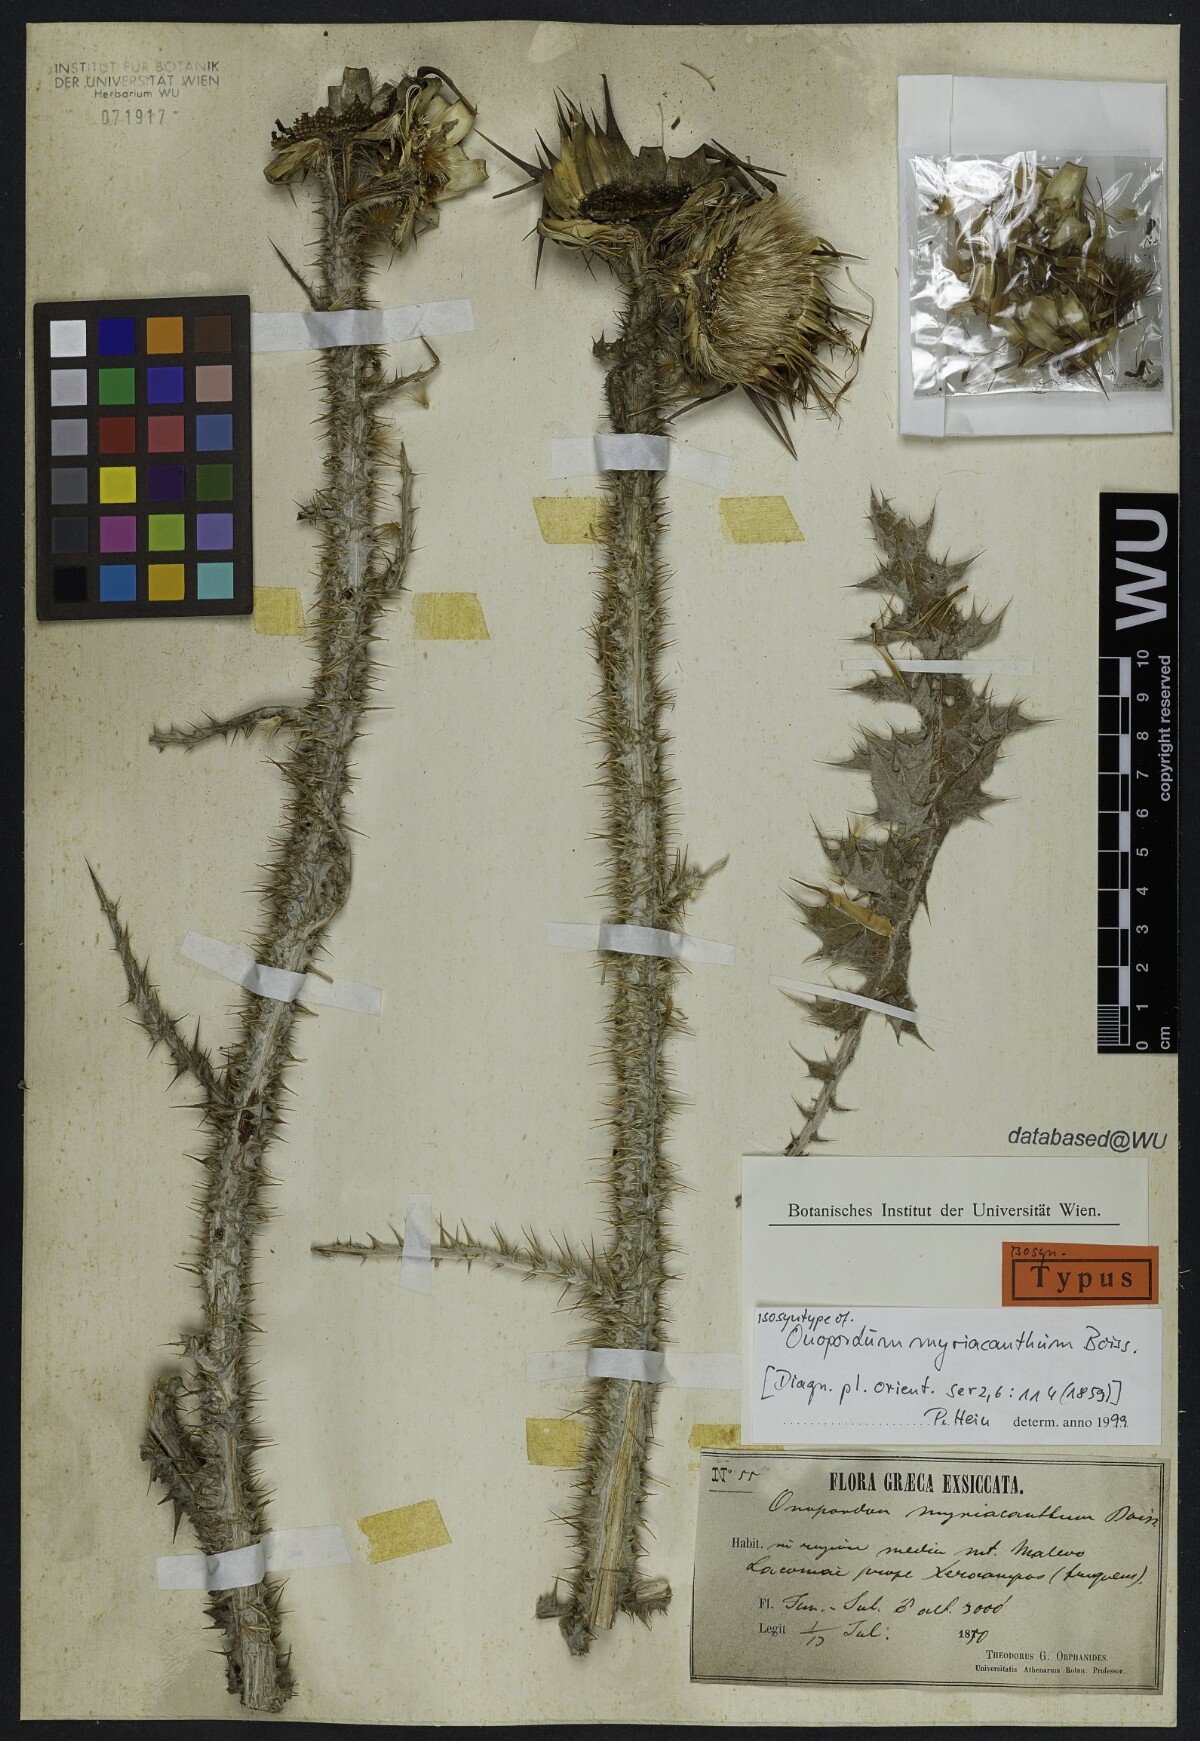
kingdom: Plantae
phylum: Tracheophyta
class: Magnoliopsida
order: Asterales
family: Asteraceae
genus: Onopordum
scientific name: Onopordum myriacanthum
